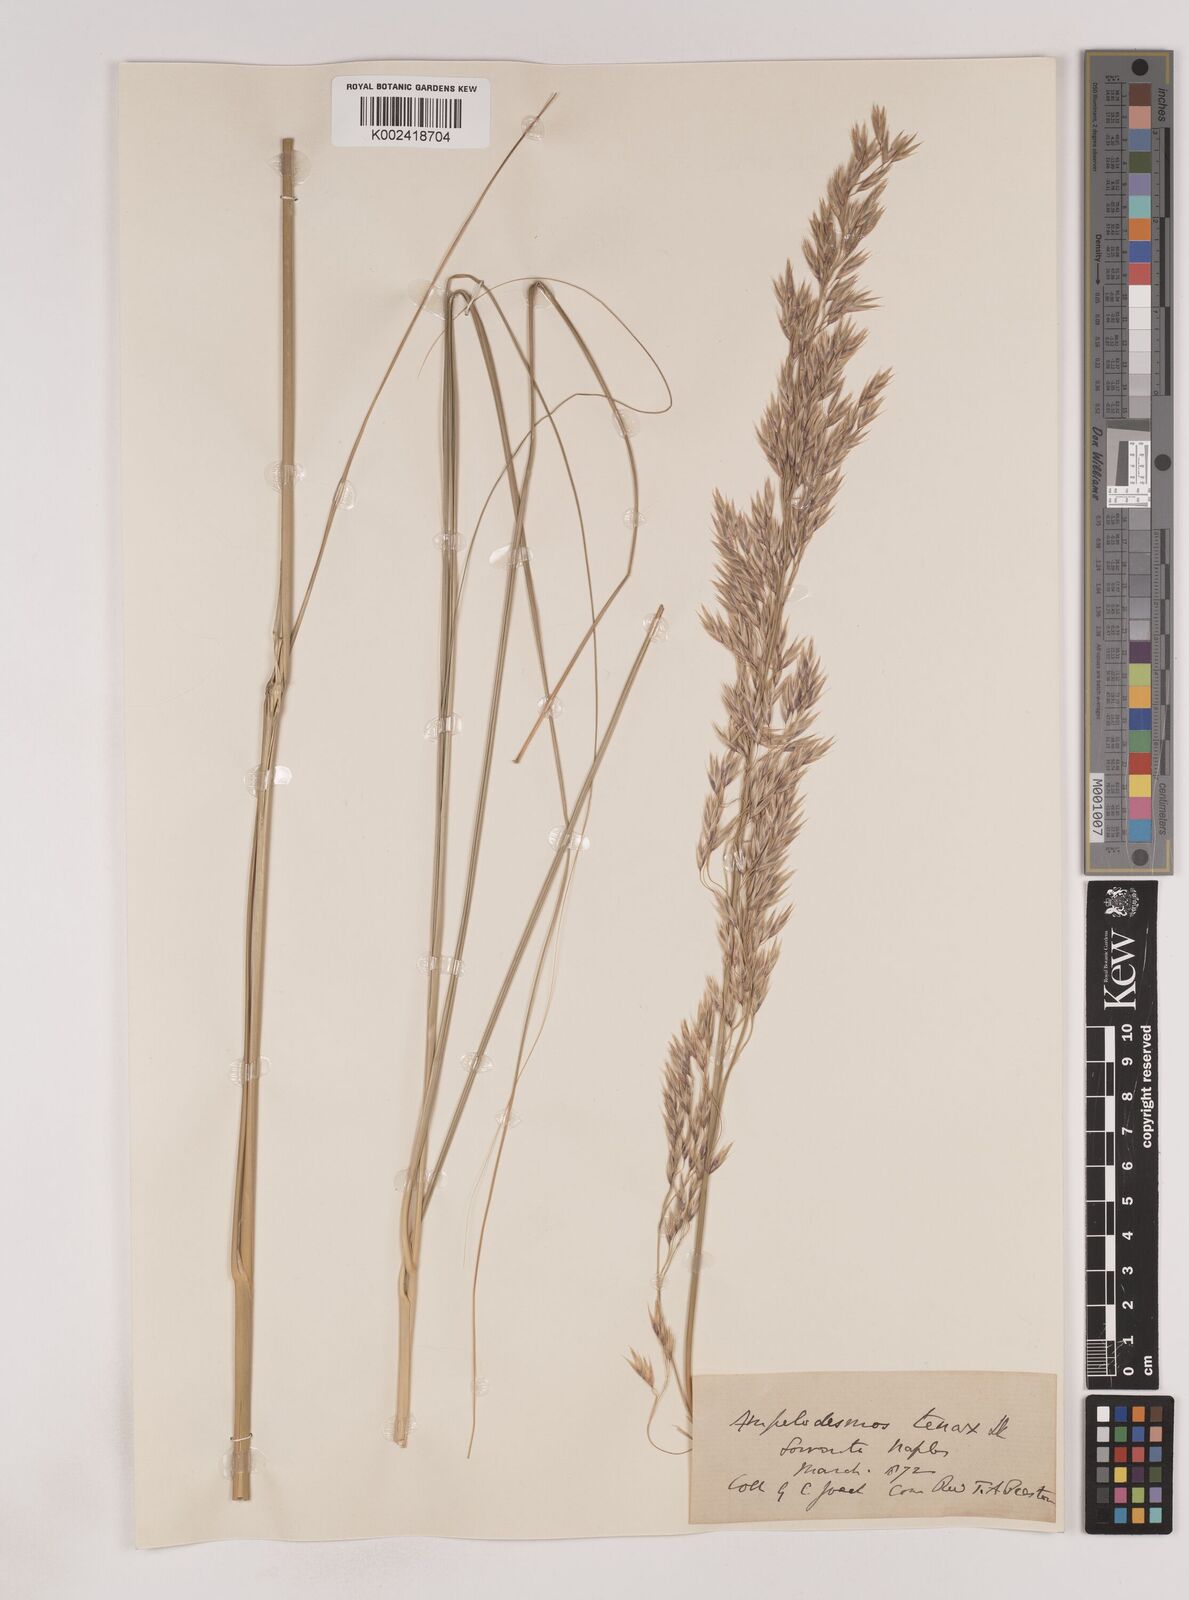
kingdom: Plantae
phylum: Tracheophyta
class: Liliopsida
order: Poales
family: Poaceae
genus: Ampelodesmos
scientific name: Ampelodesmos mauritanicus
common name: Mauritanian grass
